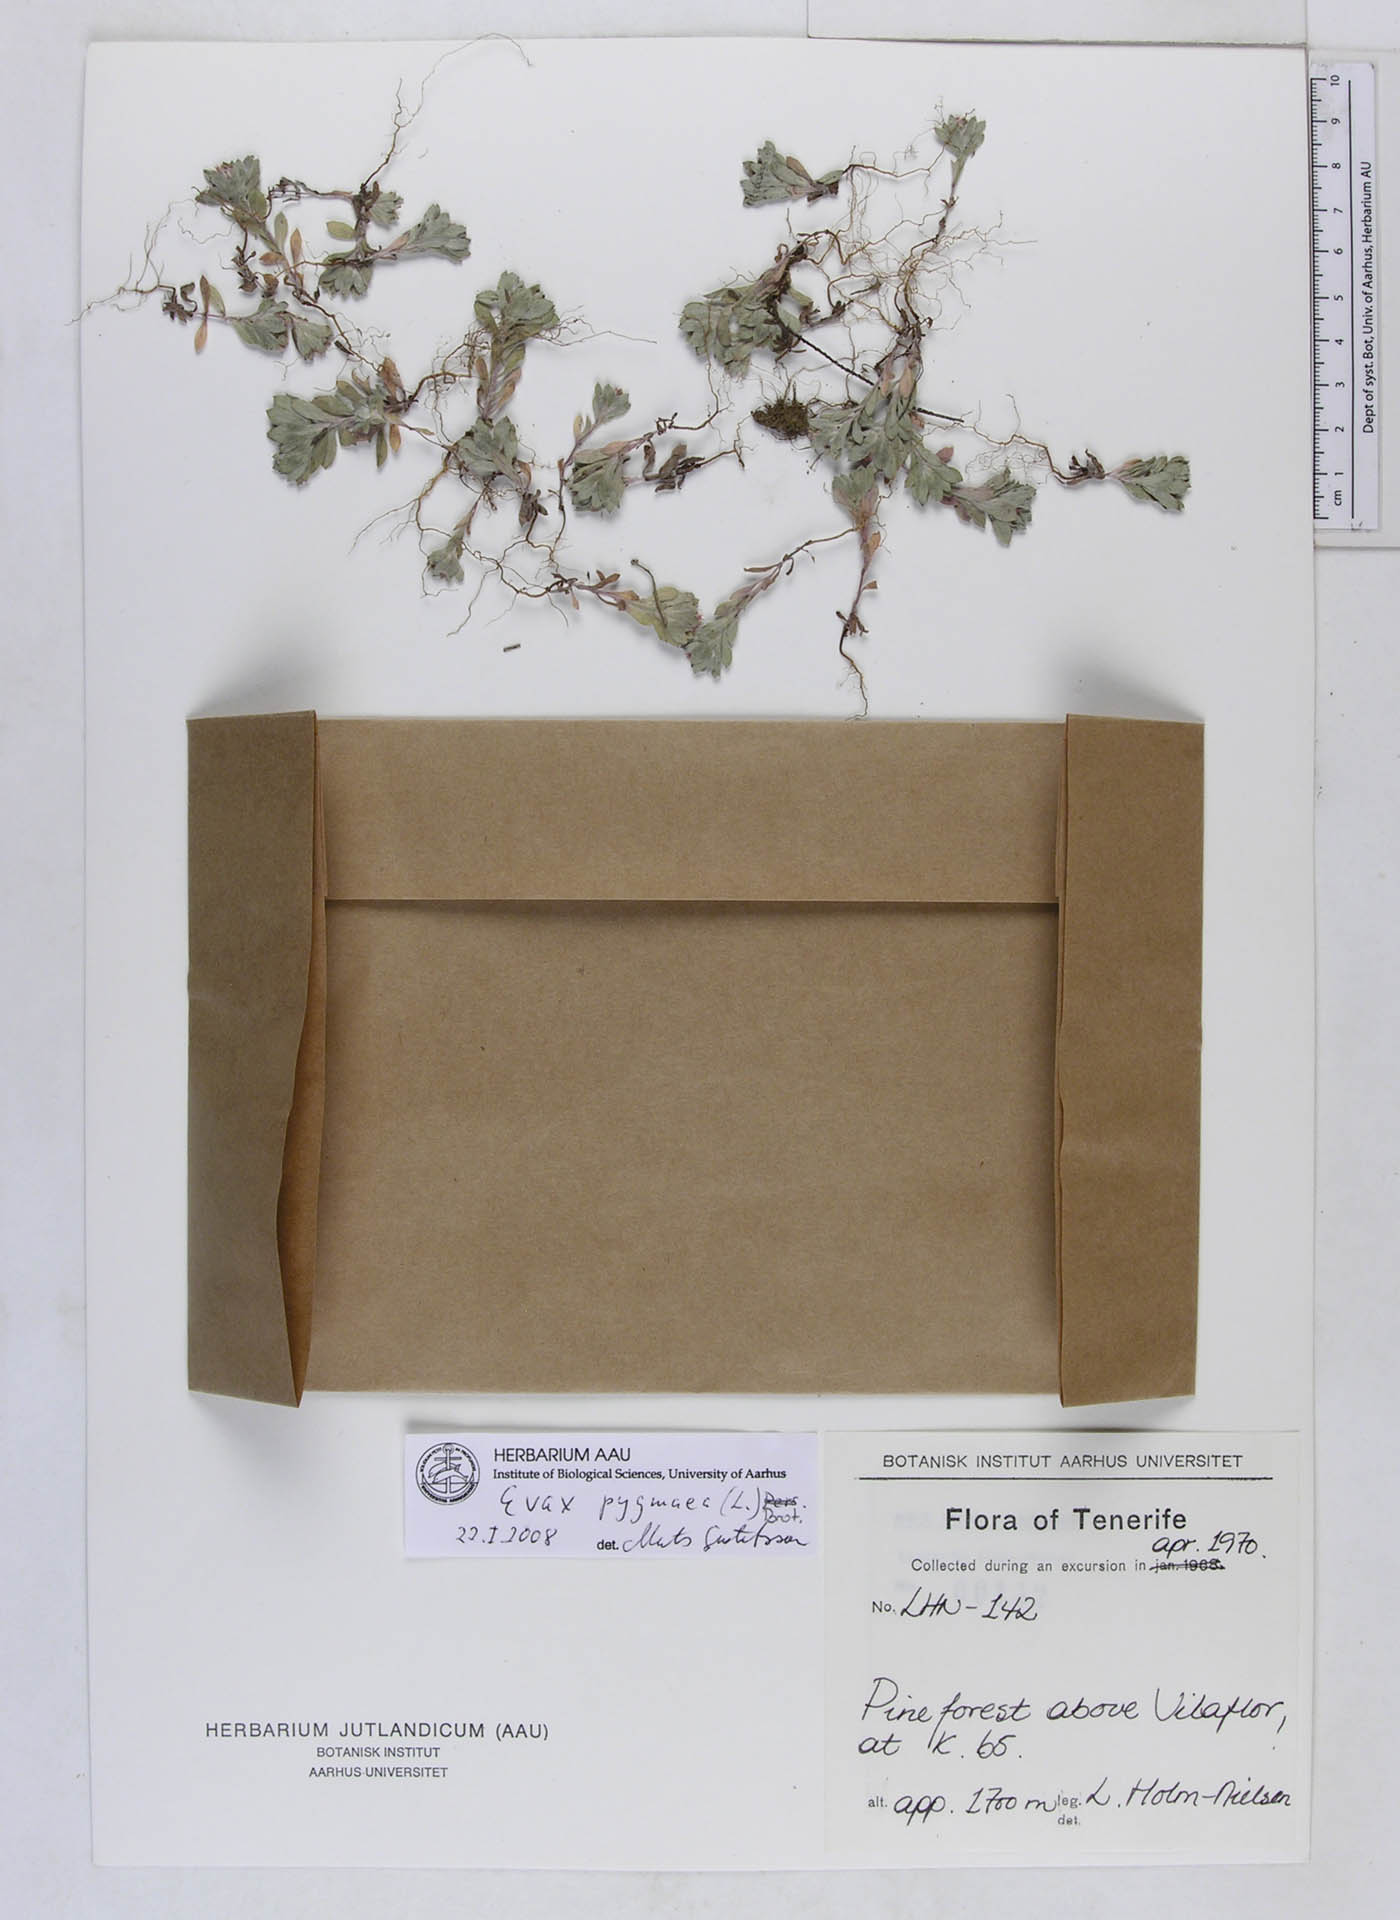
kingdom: Plantae
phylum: Tracheophyta
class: Magnoliopsida
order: Asterales
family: Asteraceae
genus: Filago
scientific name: Filago pygmaea
